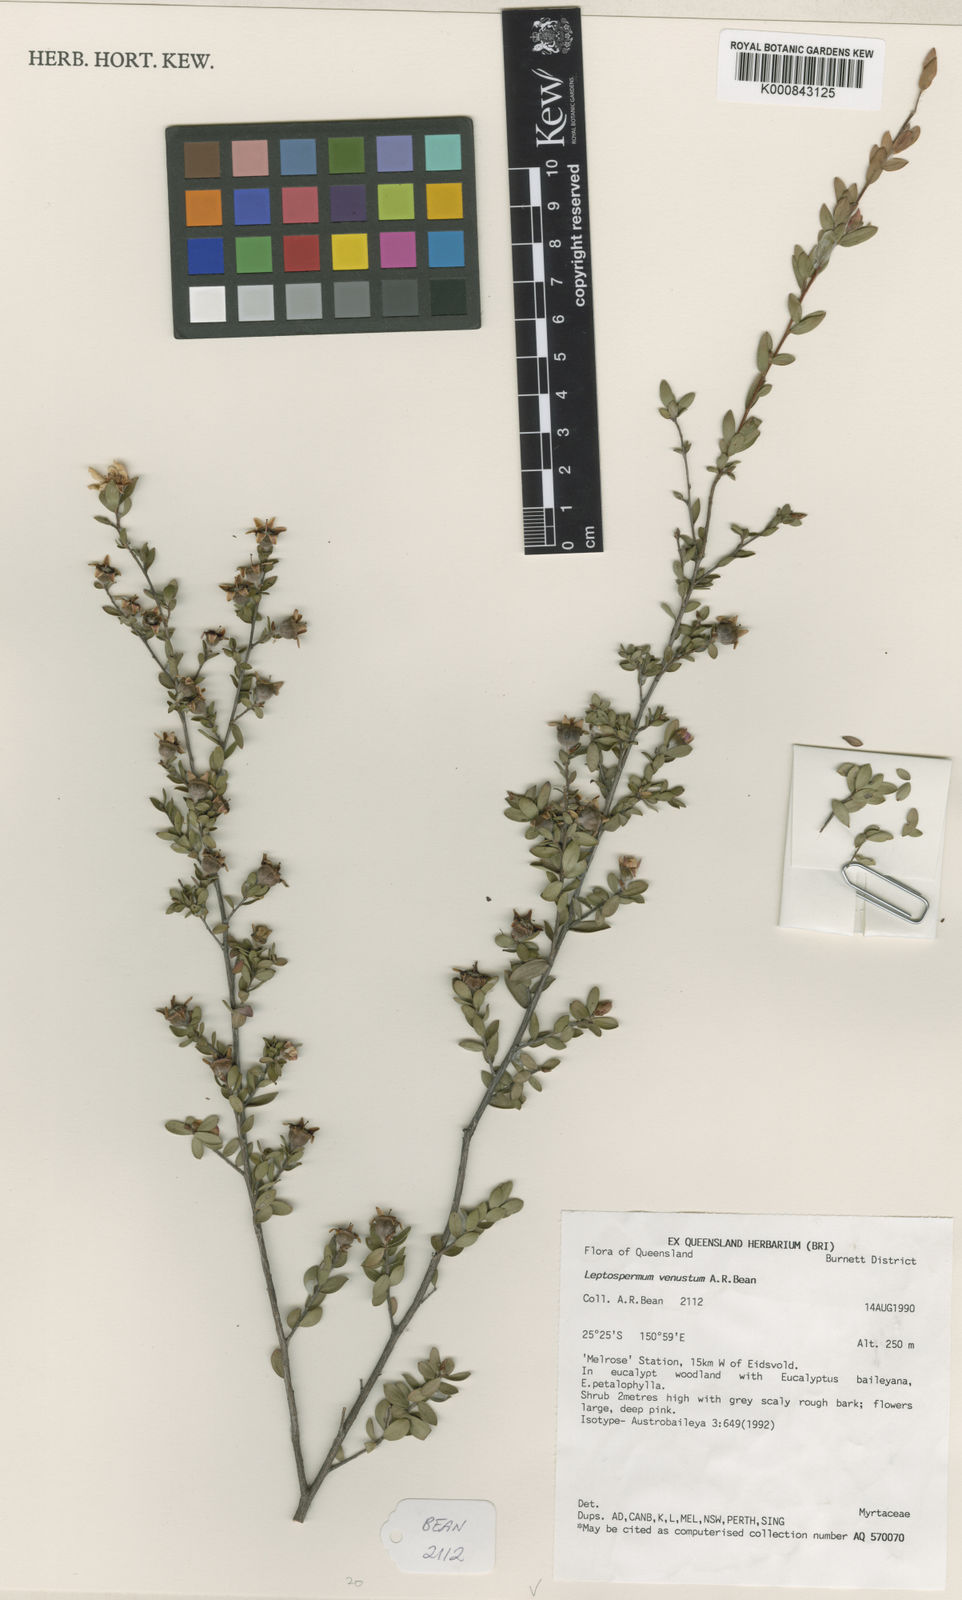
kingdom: Plantae
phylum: Tracheophyta
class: Magnoliopsida
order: Myrtales
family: Myrtaceae
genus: Leptospermum
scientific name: Leptospermum venustum
